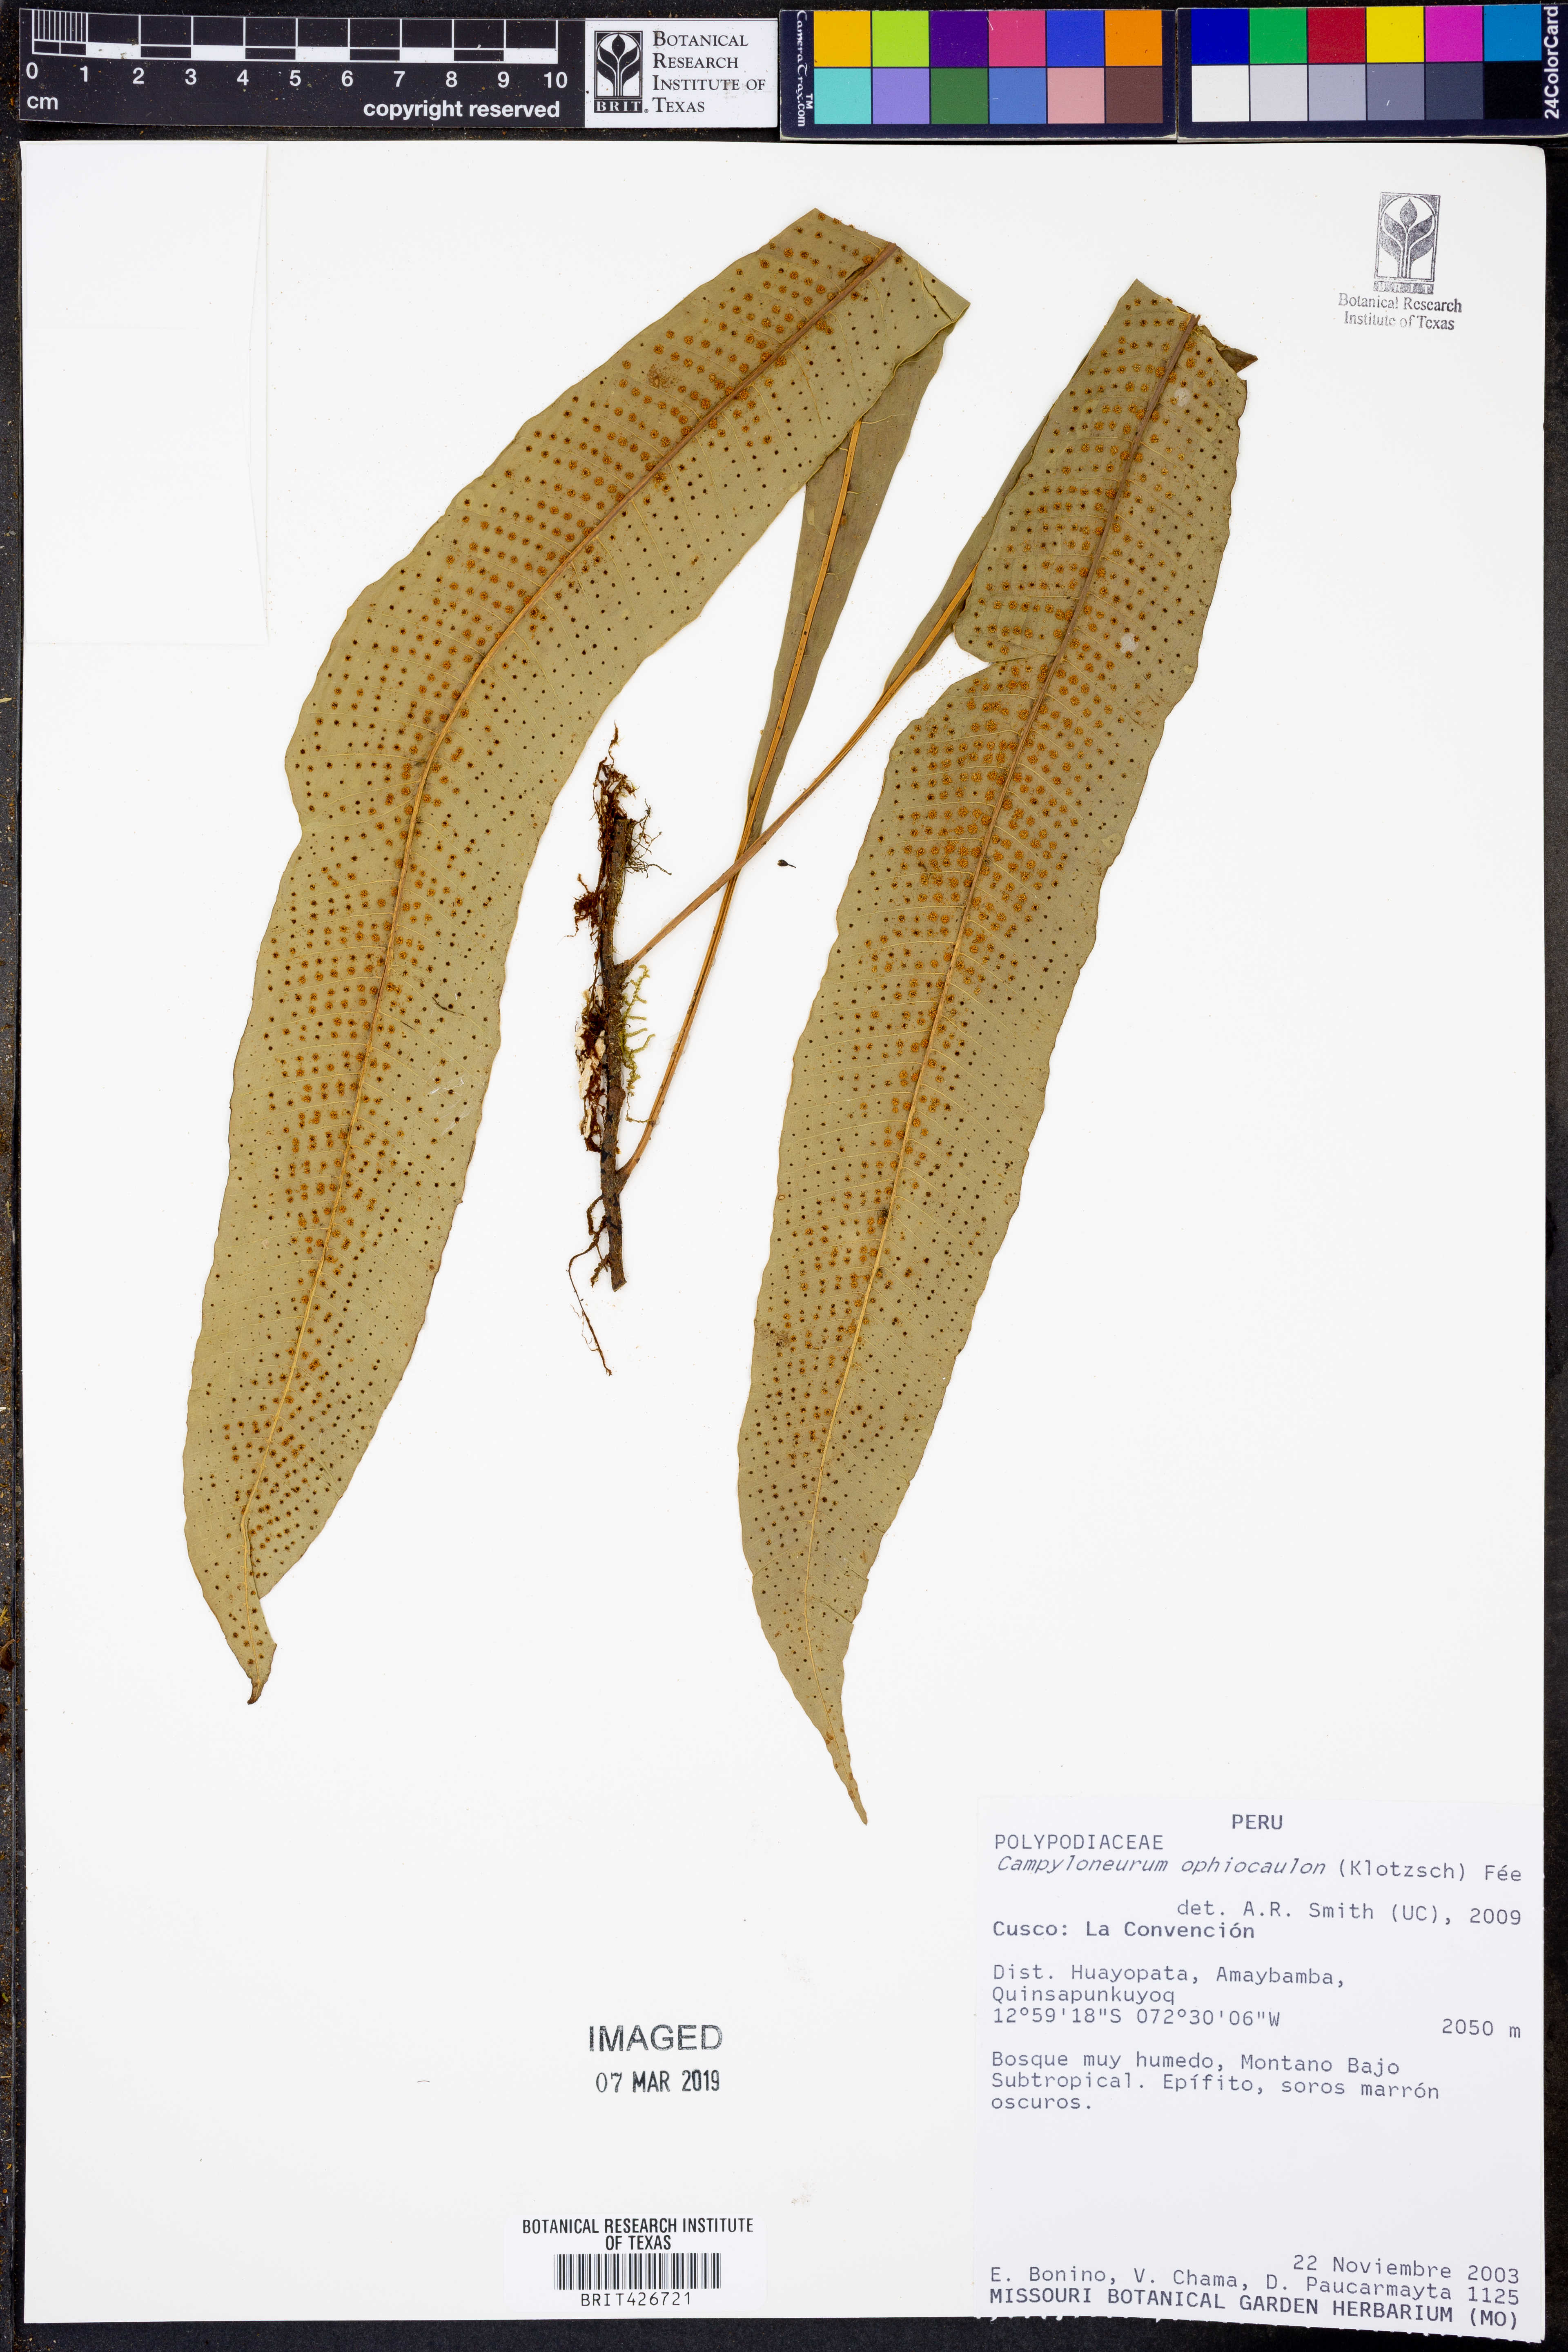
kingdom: Plantae
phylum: Tracheophyta
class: Polypodiopsida
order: Polypodiales
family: Polypodiaceae
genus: Campyloneurum
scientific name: Campyloneurum ophiocaulon
